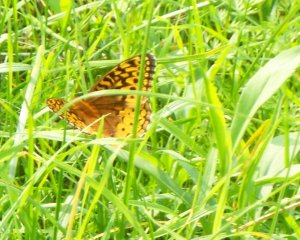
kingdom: Animalia
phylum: Arthropoda
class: Insecta
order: Lepidoptera
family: Nymphalidae
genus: Speyeria
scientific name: Speyeria cybele
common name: Great Spangled Fritillary
